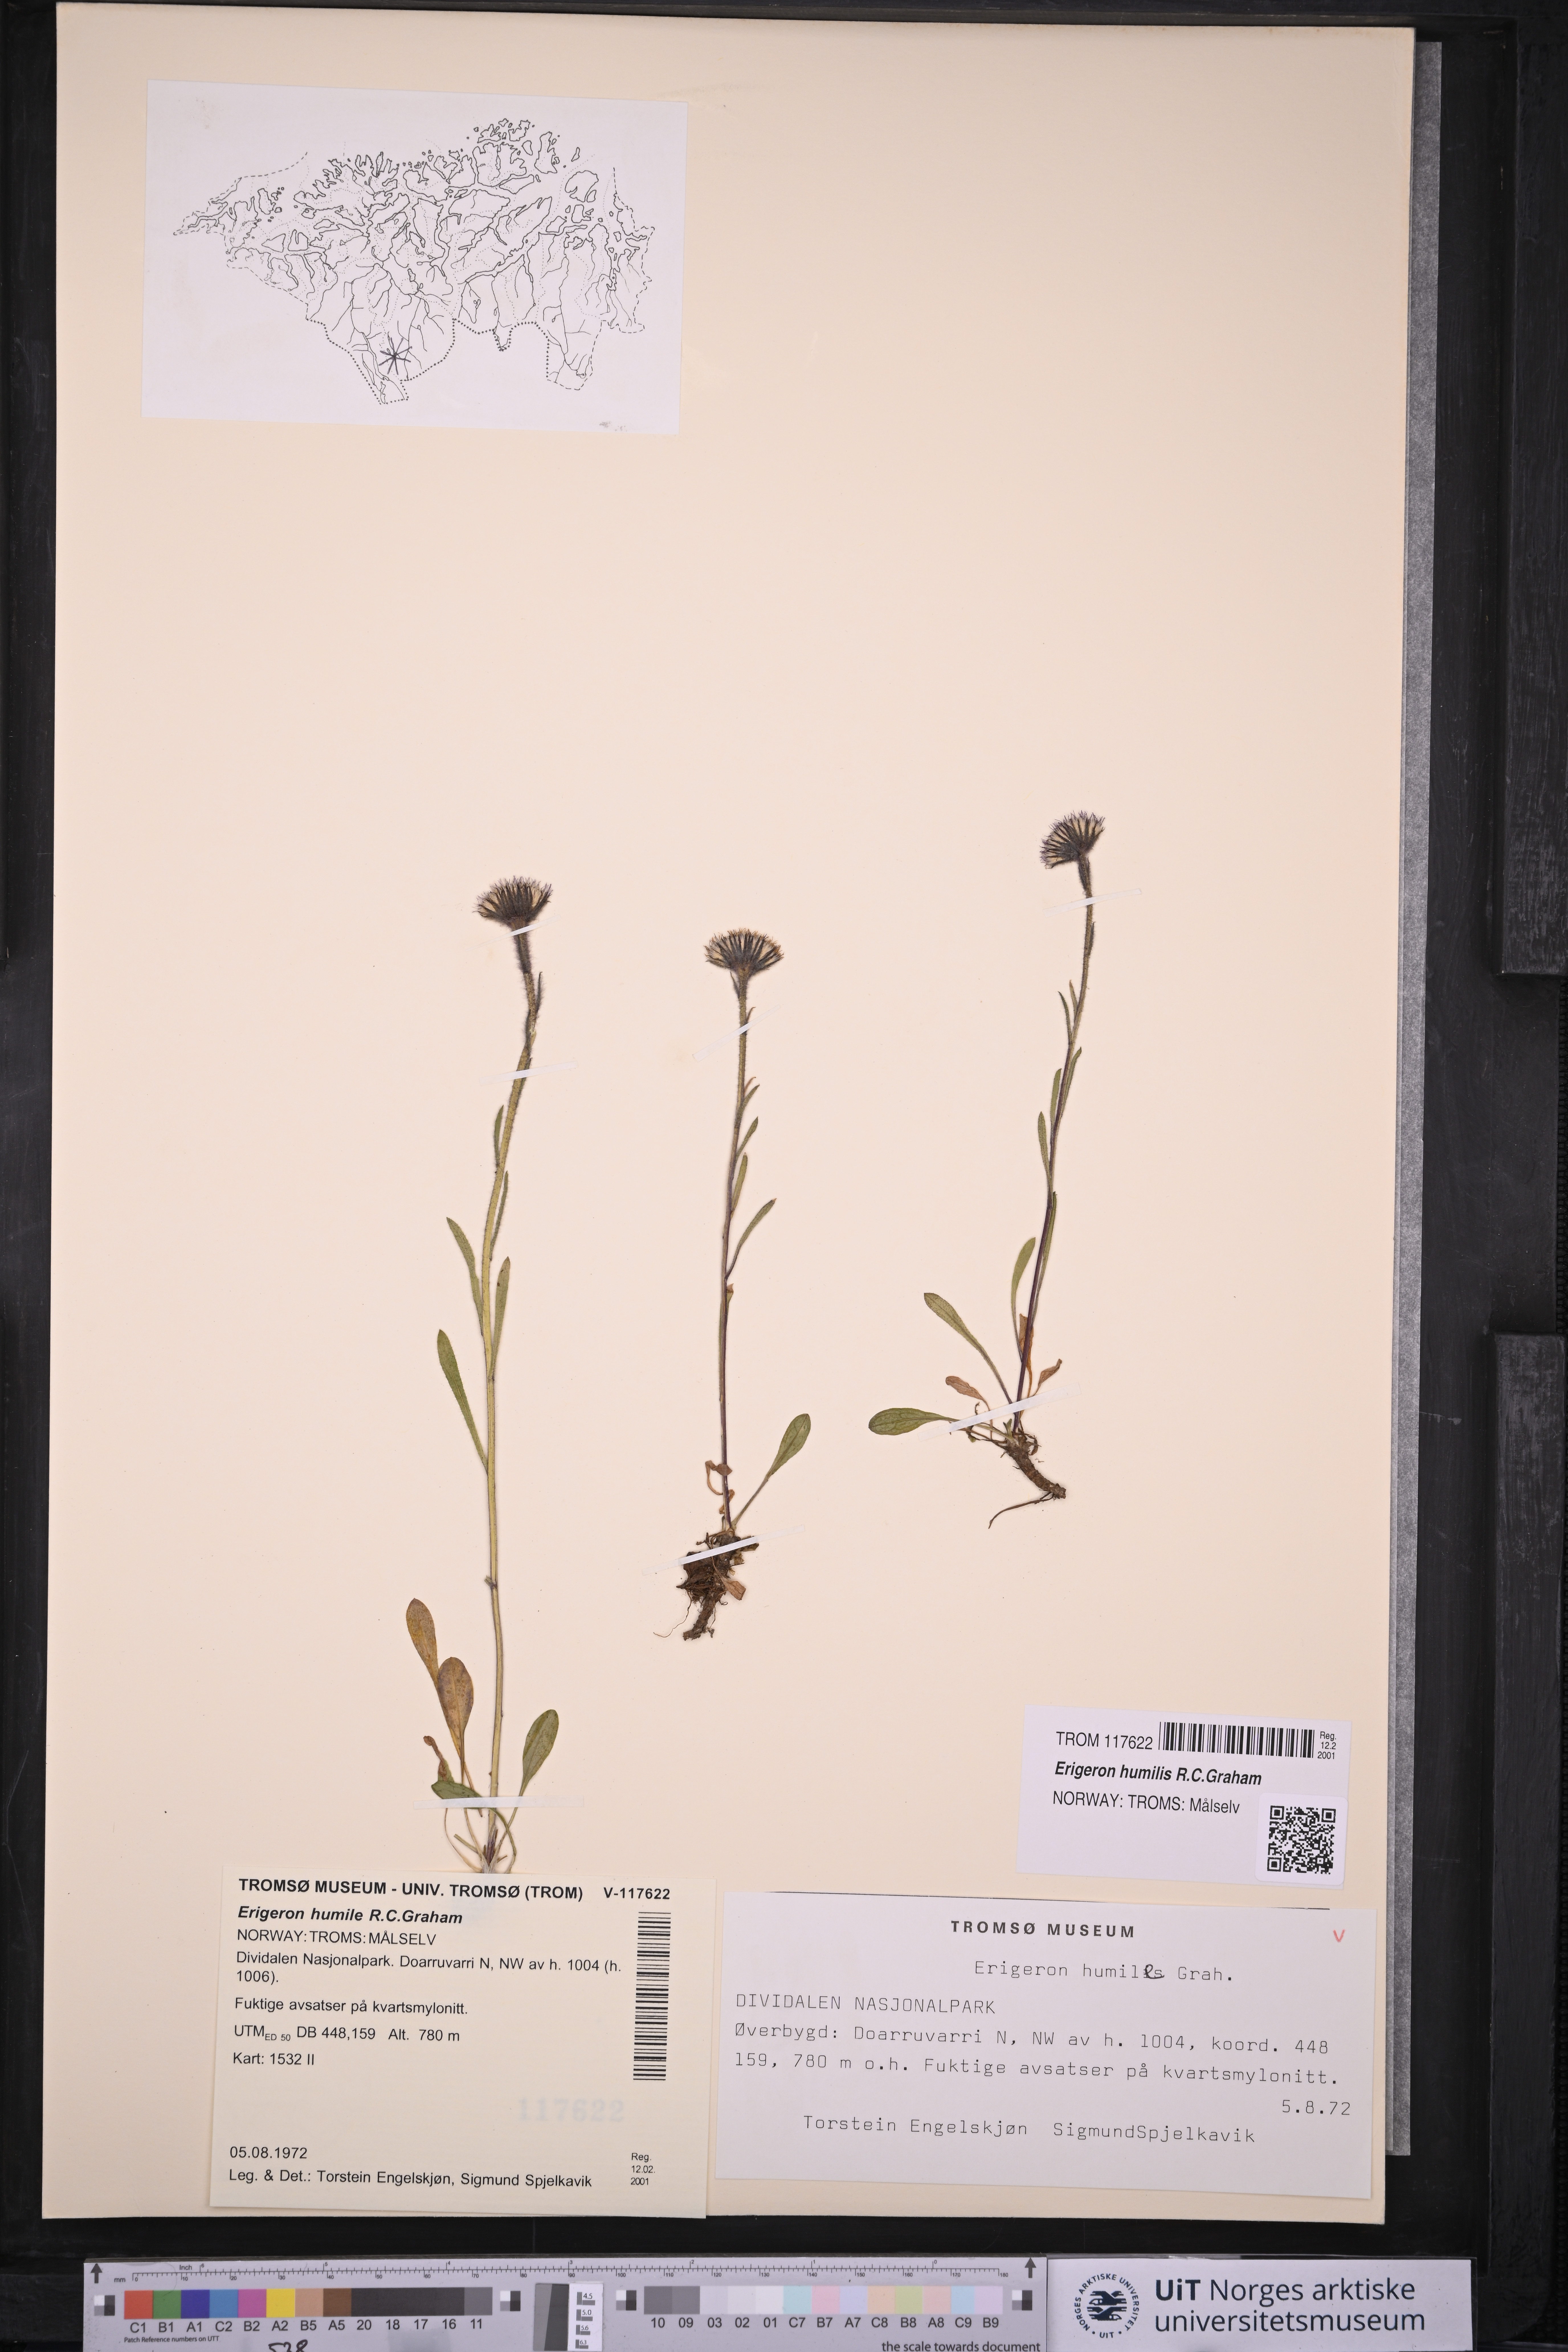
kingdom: Plantae
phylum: Tracheophyta
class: Magnoliopsida
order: Asterales
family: Asteraceae
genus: Erigeron
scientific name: Erigeron humilis
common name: Arctic-alpine fleabane
